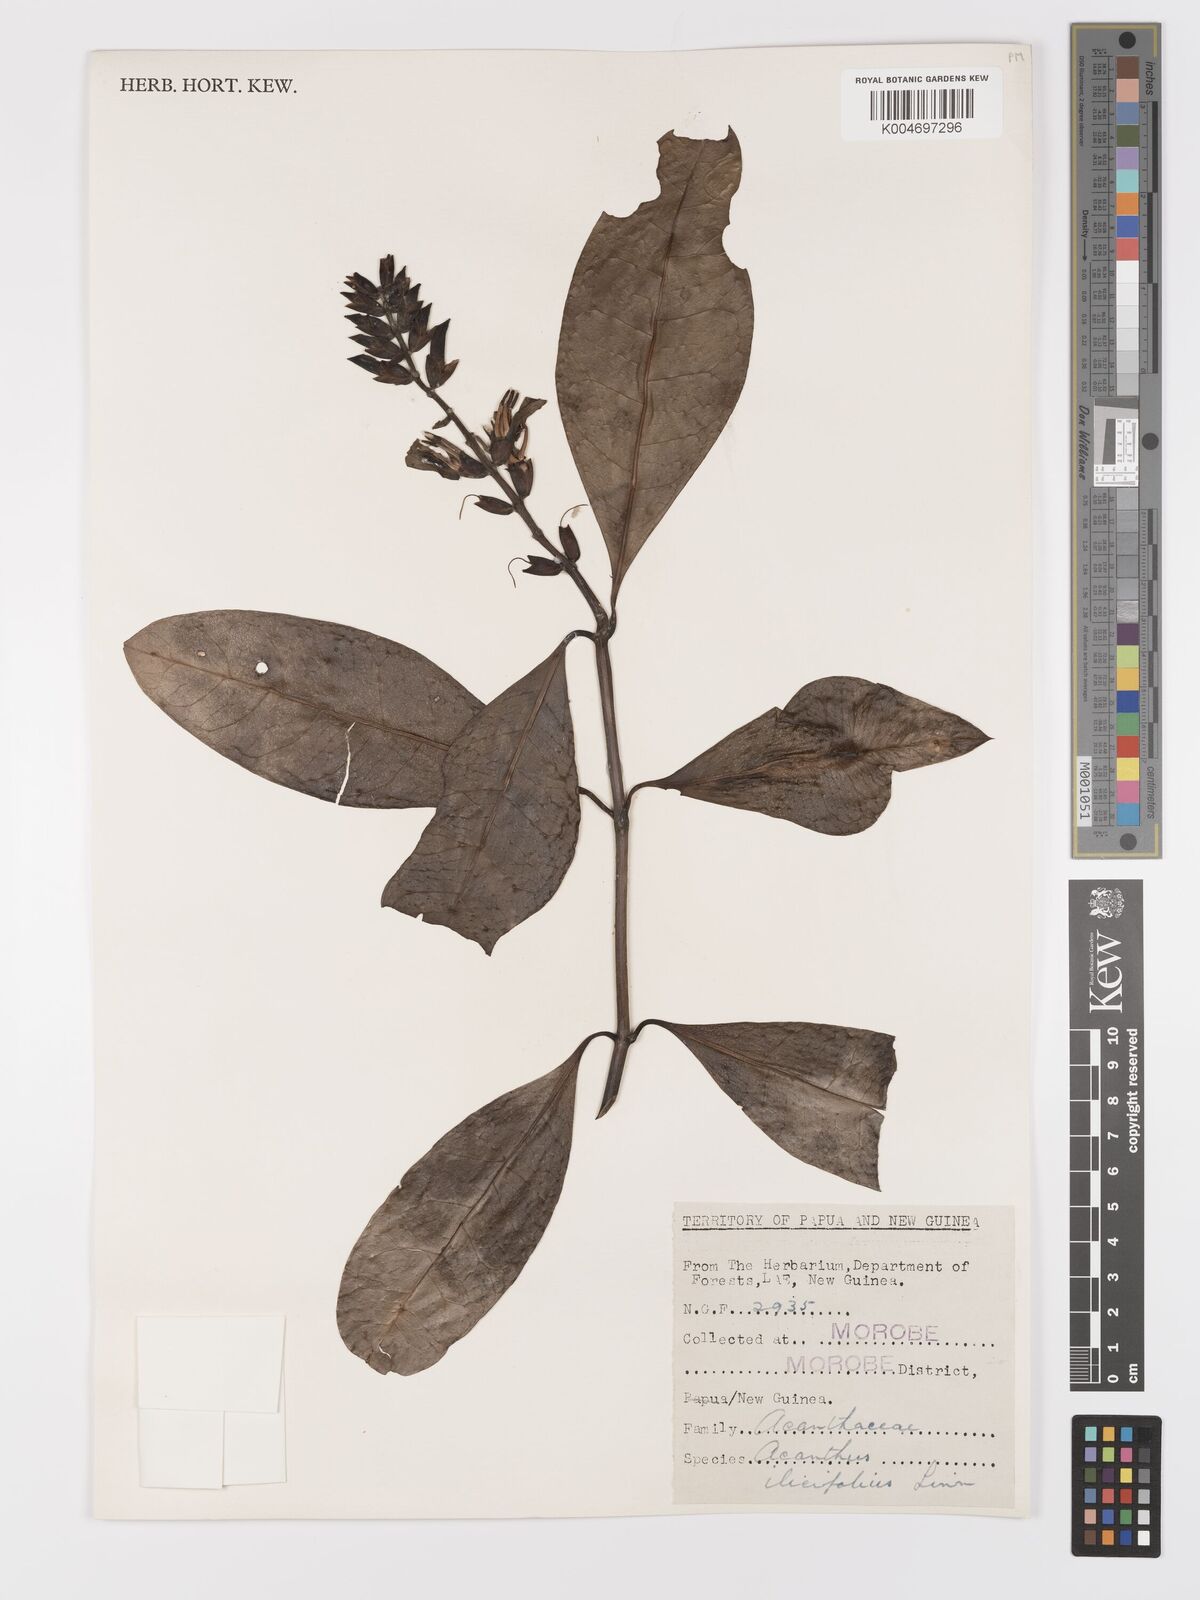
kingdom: Plantae
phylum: Tracheophyta
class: Magnoliopsida
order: Lamiales
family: Acanthaceae
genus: Acanthus
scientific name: Acanthus ilicifolius
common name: Holy mangrove
